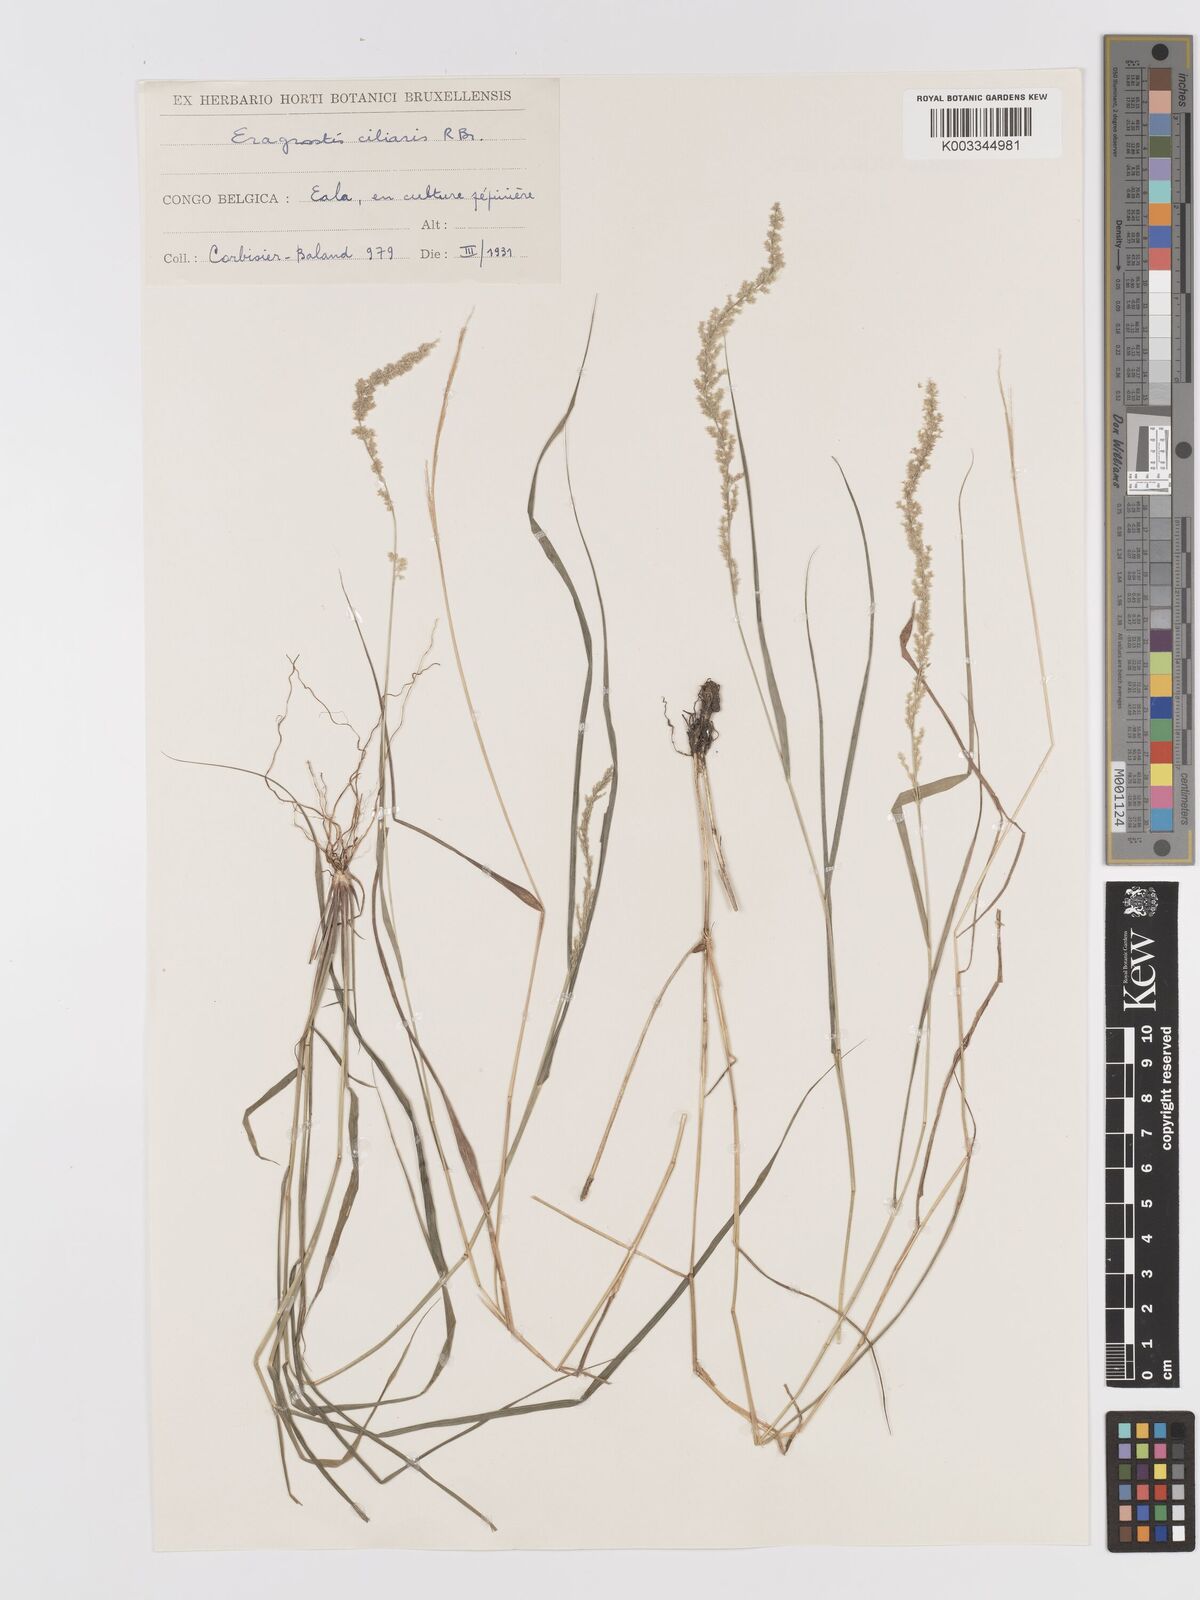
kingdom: Plantae
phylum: Tracheophyta
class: Liliopsida
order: Poales
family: Poaceae
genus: Eragrostis
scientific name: Eragrostis ciliaris
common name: Gophertail lovegrass
